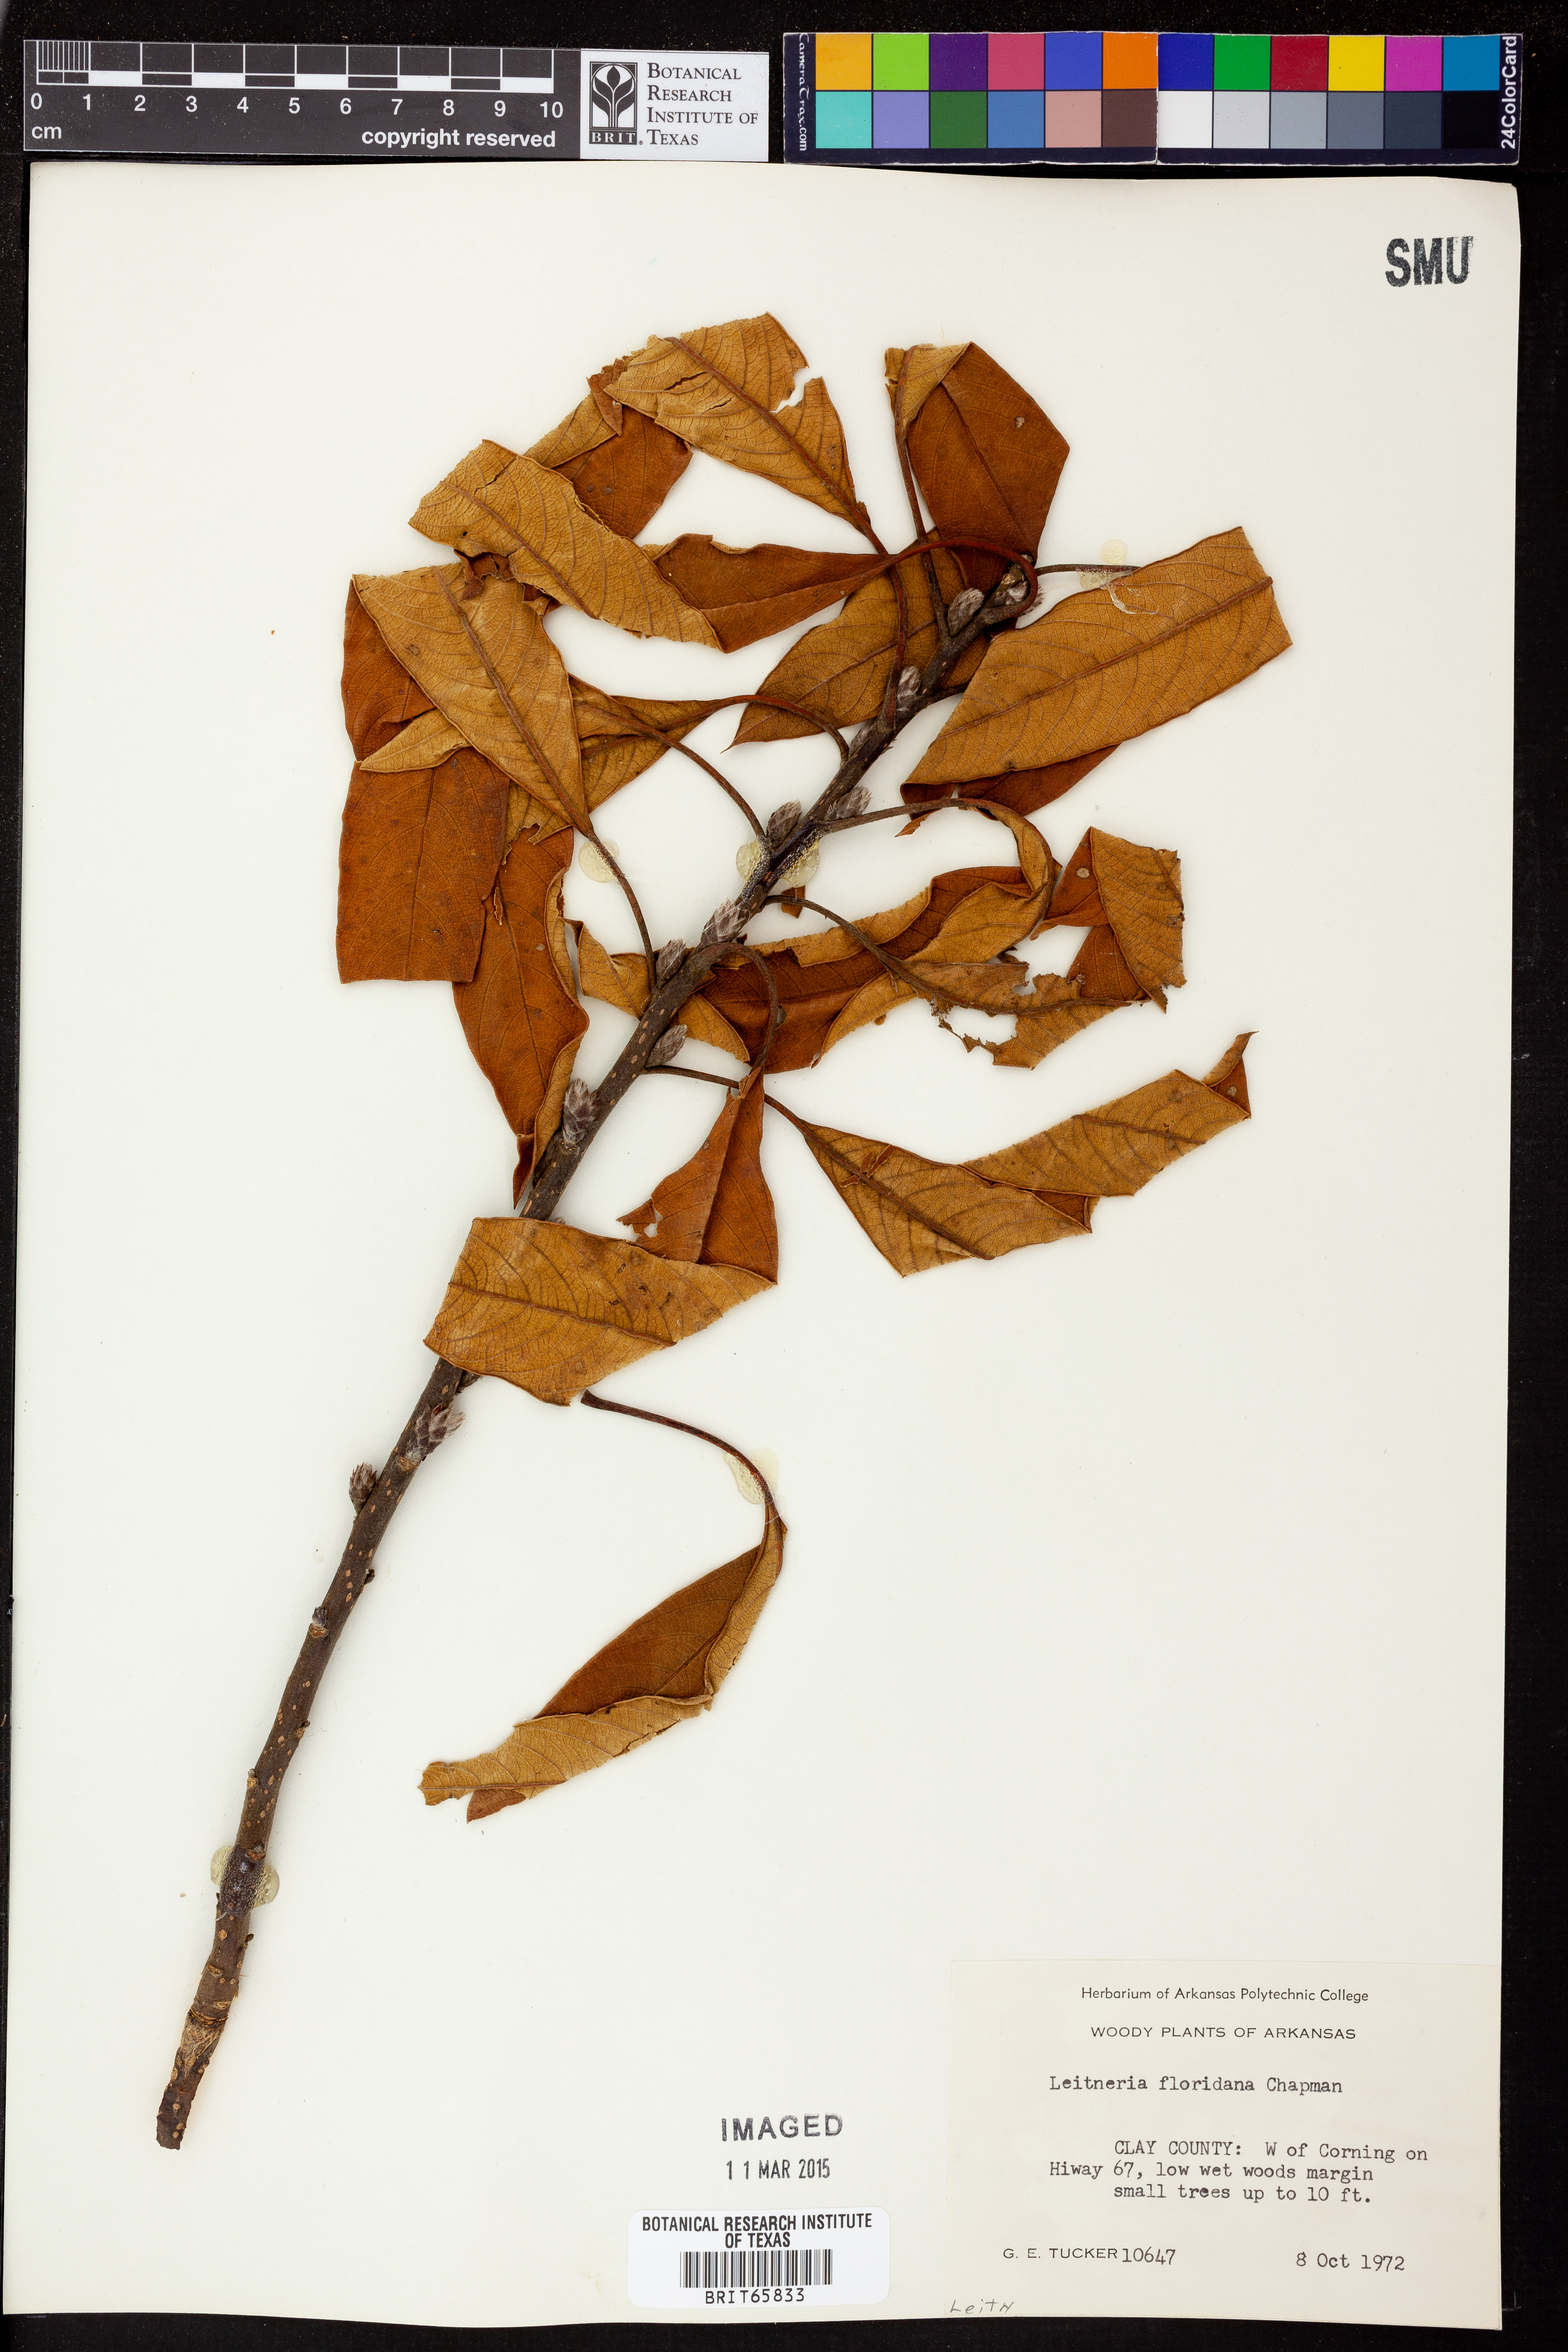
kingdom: Plantae
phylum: Tracheophyta
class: Magnoliopsida
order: Sapindales
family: Simaroubaceae
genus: Leitneria
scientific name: Leitneria floridana
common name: Corkwood
